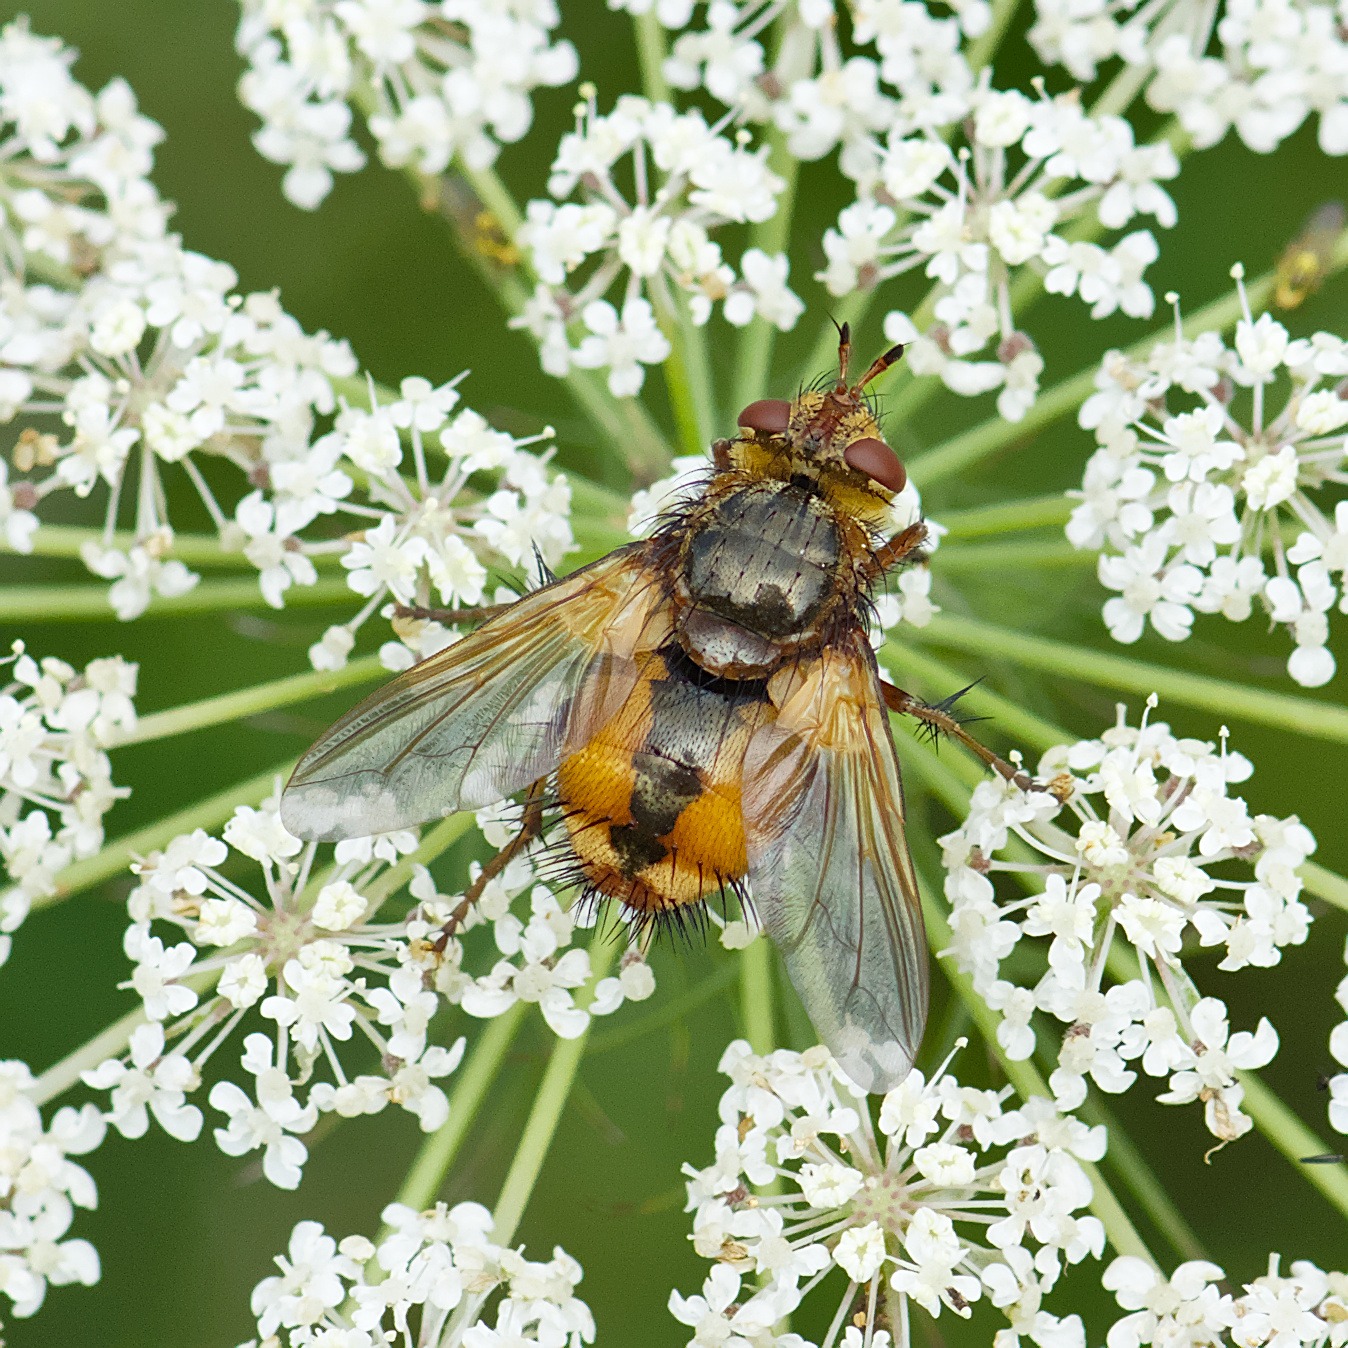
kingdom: Animalia
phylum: Arthropoda
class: Insecta
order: Diptera
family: Tachinidae
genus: Tachina
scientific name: Tachina fera
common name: Mellemfluen oskar
